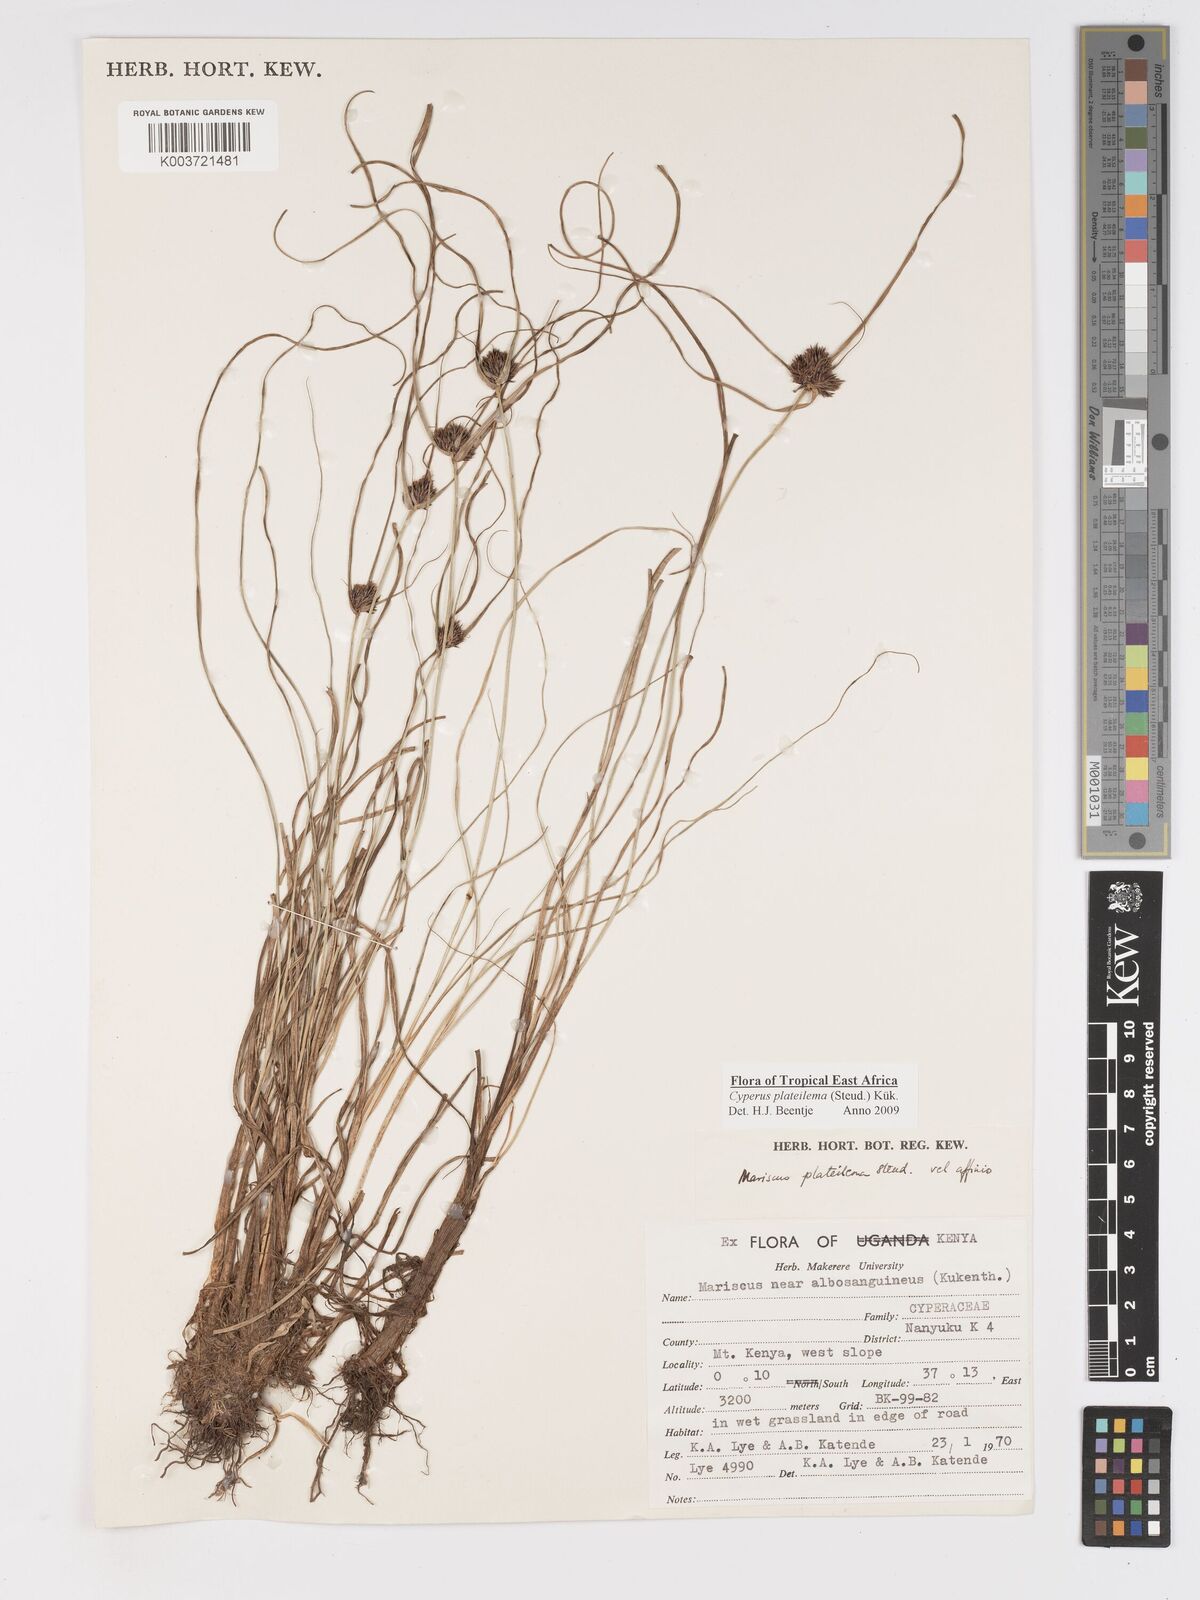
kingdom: Plantae
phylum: Tracheophyta
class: Liliopsida
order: Poales
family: Cyperaceae
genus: Cyperus
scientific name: Cyperus plateilema
